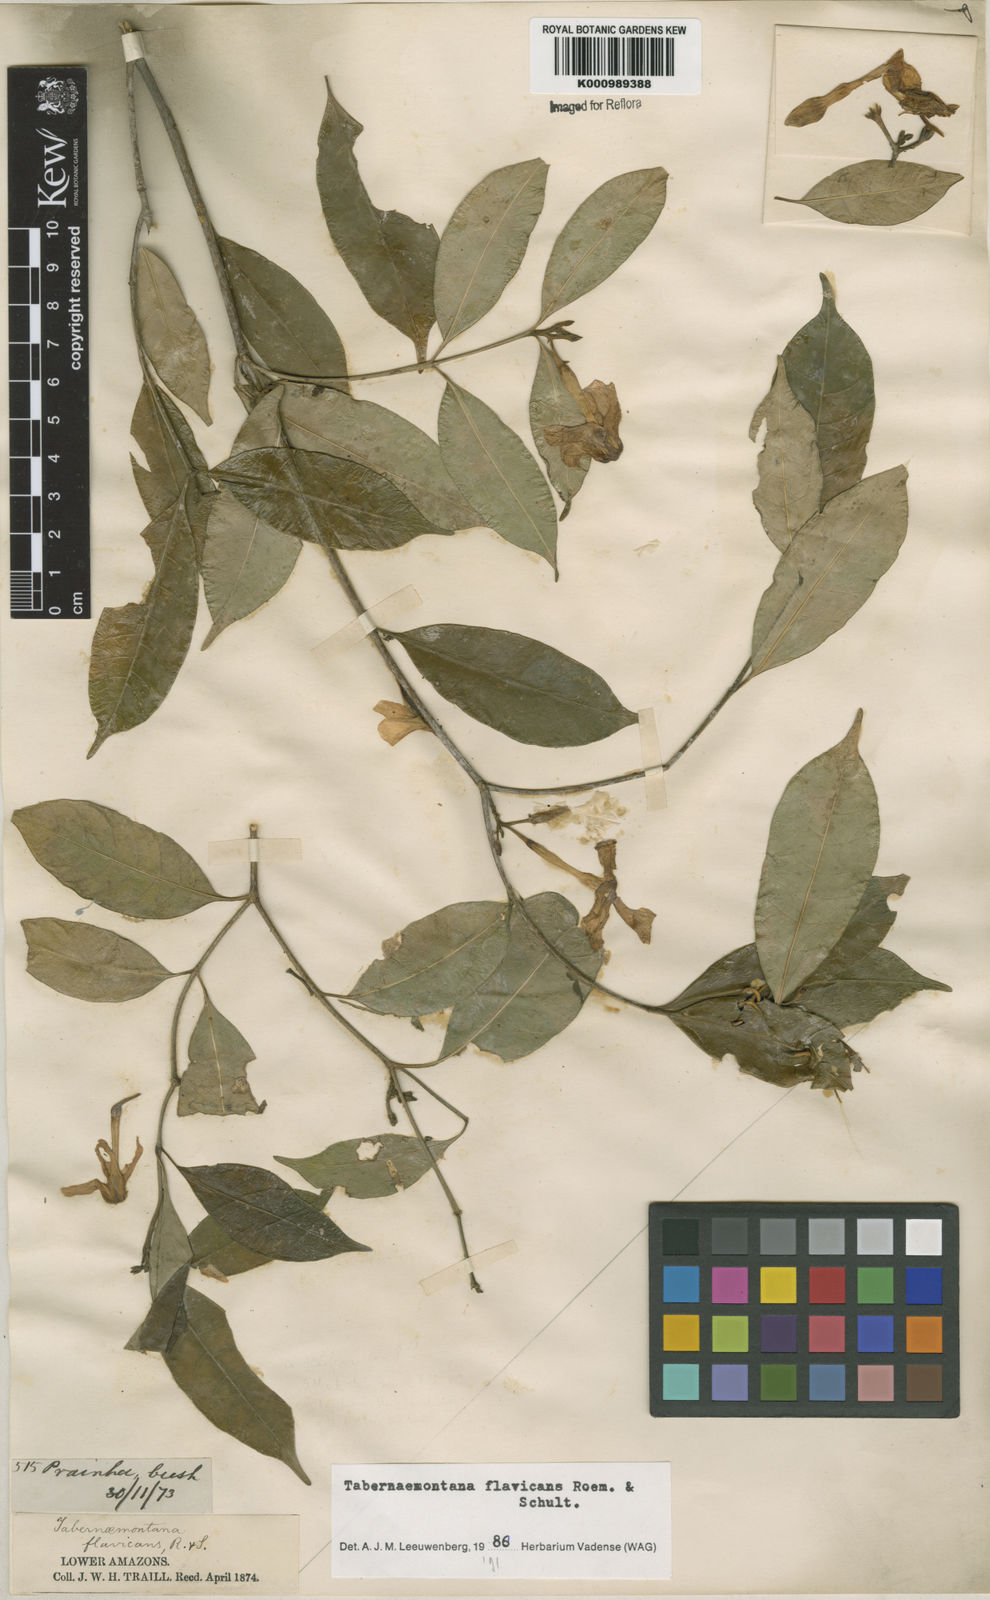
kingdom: Plantae
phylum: Tracheophyta
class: Magnoliopsida
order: Gentianales
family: Apocynaceae
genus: Tabernaemontana
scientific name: Tabernaemontana flavicans
